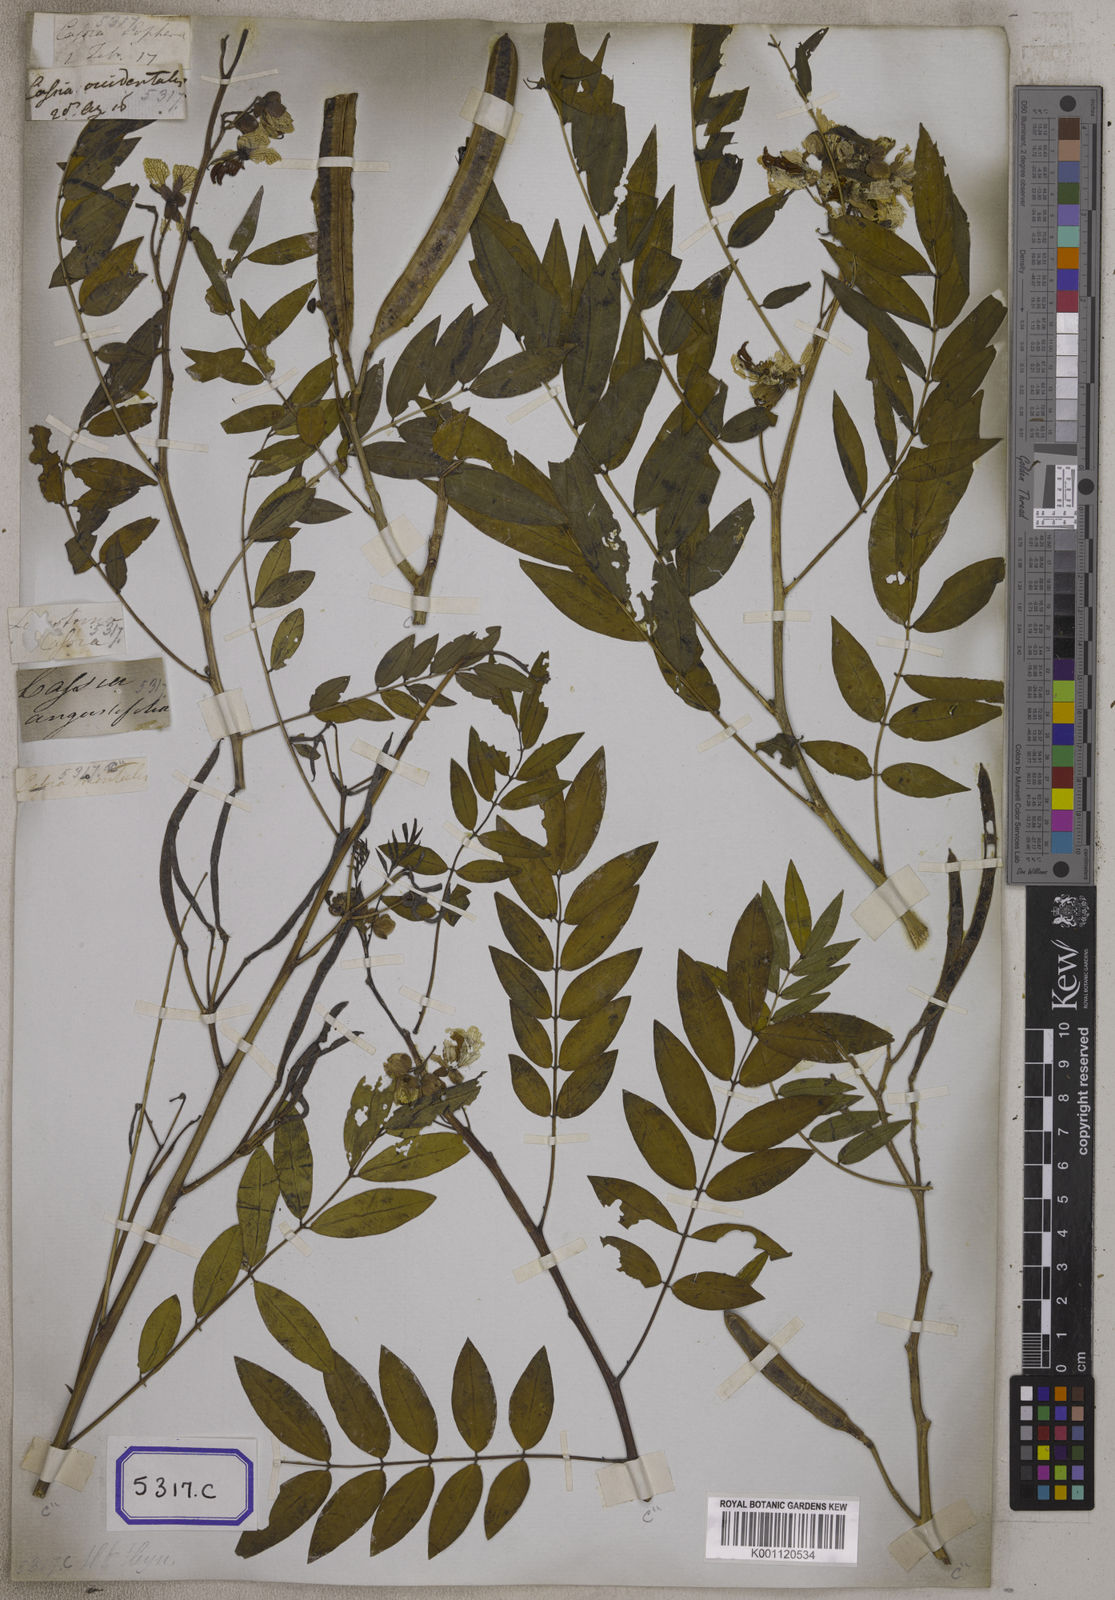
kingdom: Plantae
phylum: Tracheophyta
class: Magnoliopsida
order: Fabales
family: Fabaceae
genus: Cassia
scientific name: Cassia
